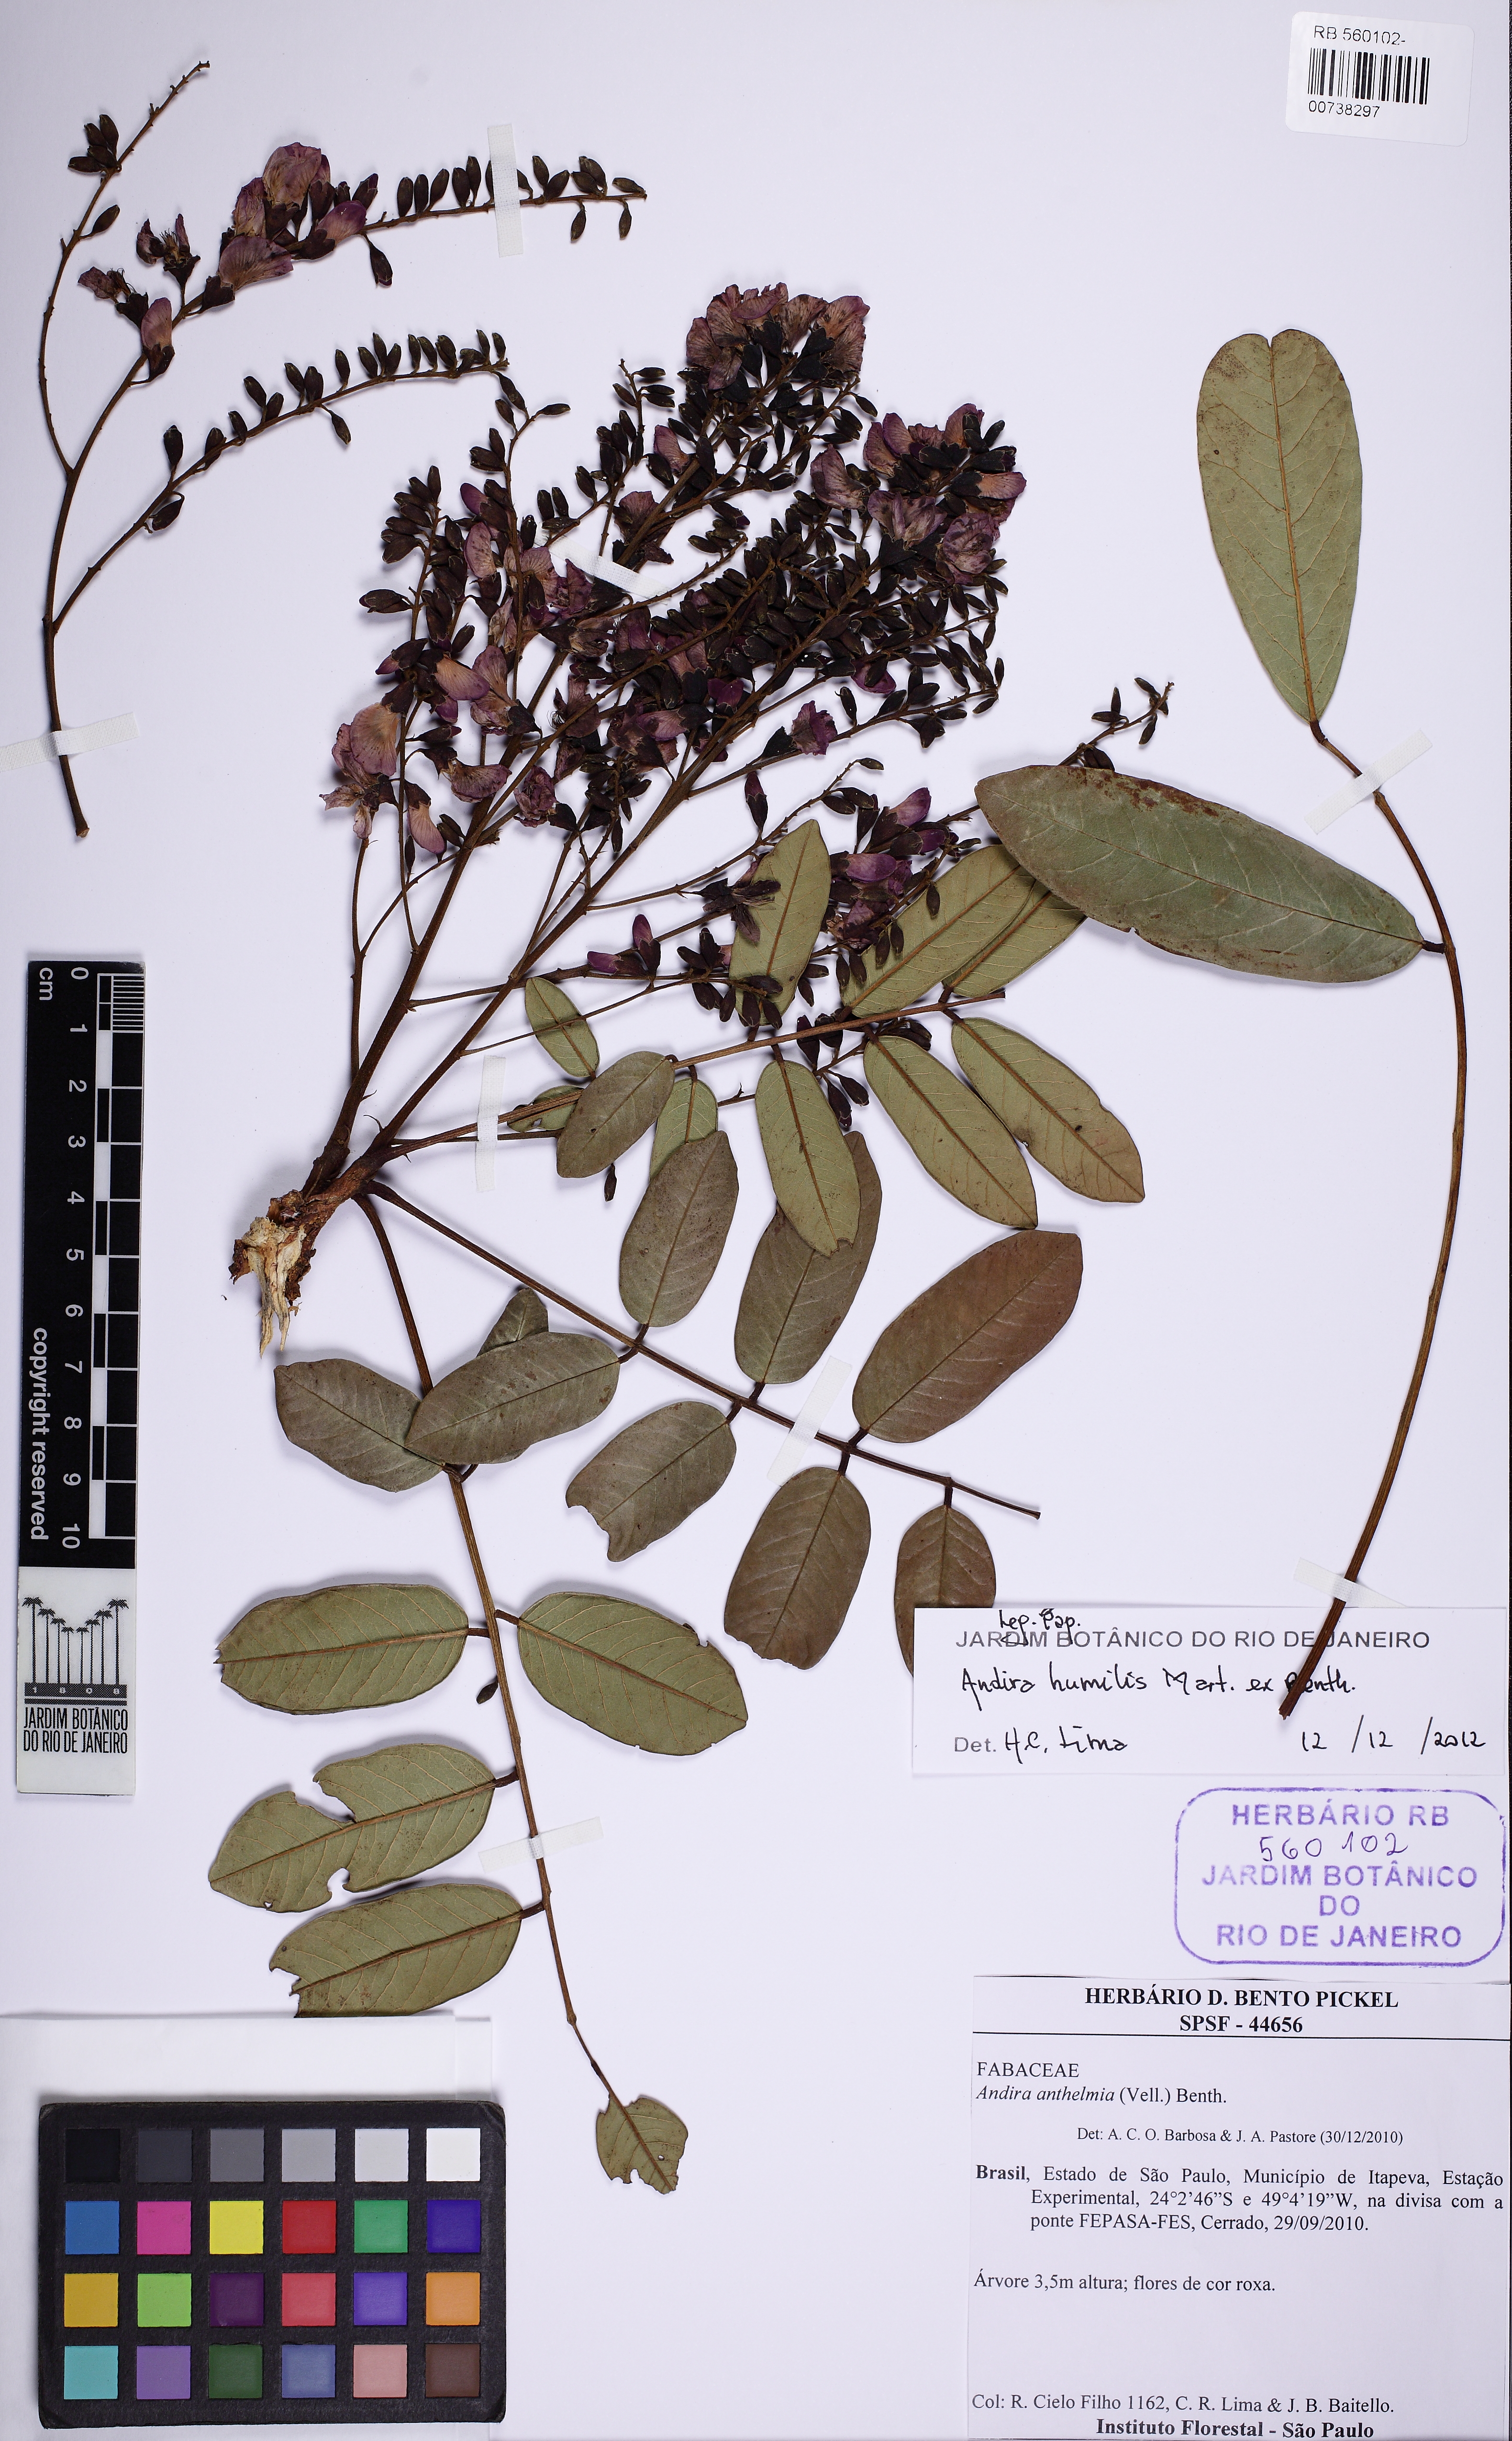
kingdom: Plantae
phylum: Tracheophyta
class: Magnoliopsida
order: Fabales
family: Fabaceae
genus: Andira
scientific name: Andira humilis
